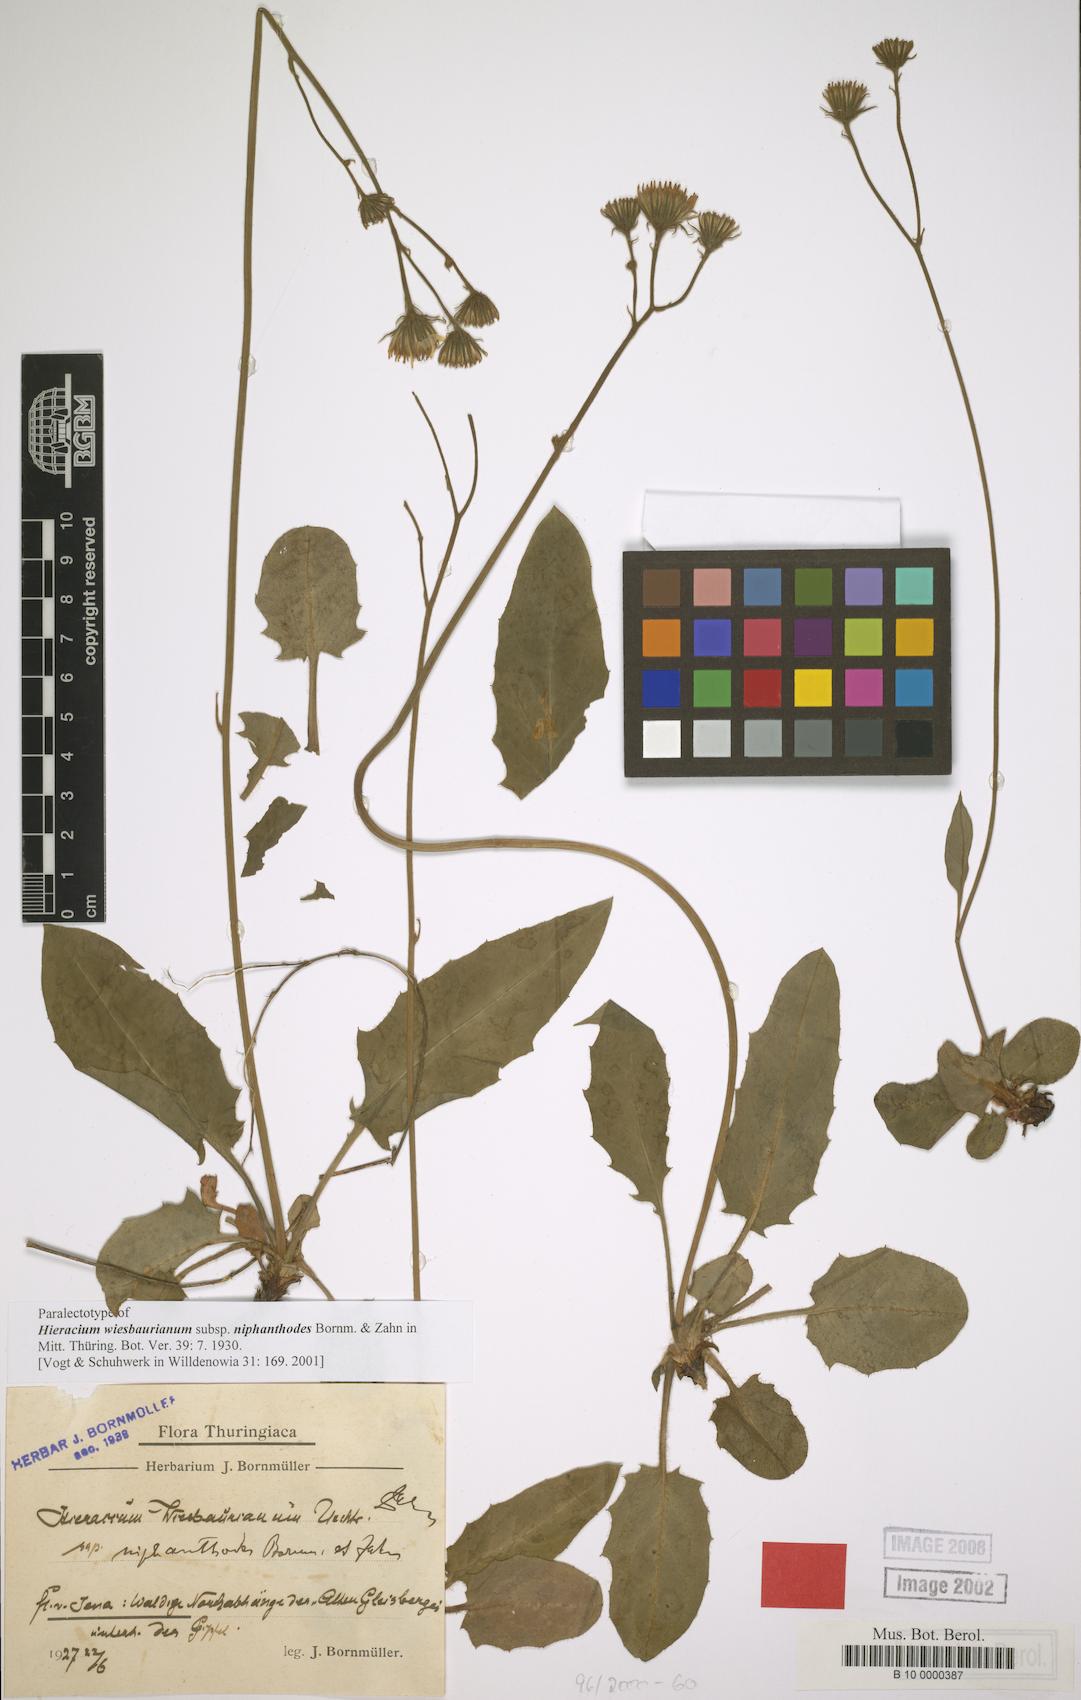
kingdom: Plantae
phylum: Tracheophyta
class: Magnoliopsida
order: Asterales
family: Asteraceae
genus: Hieracium
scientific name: Hieracium hypochoeroides
